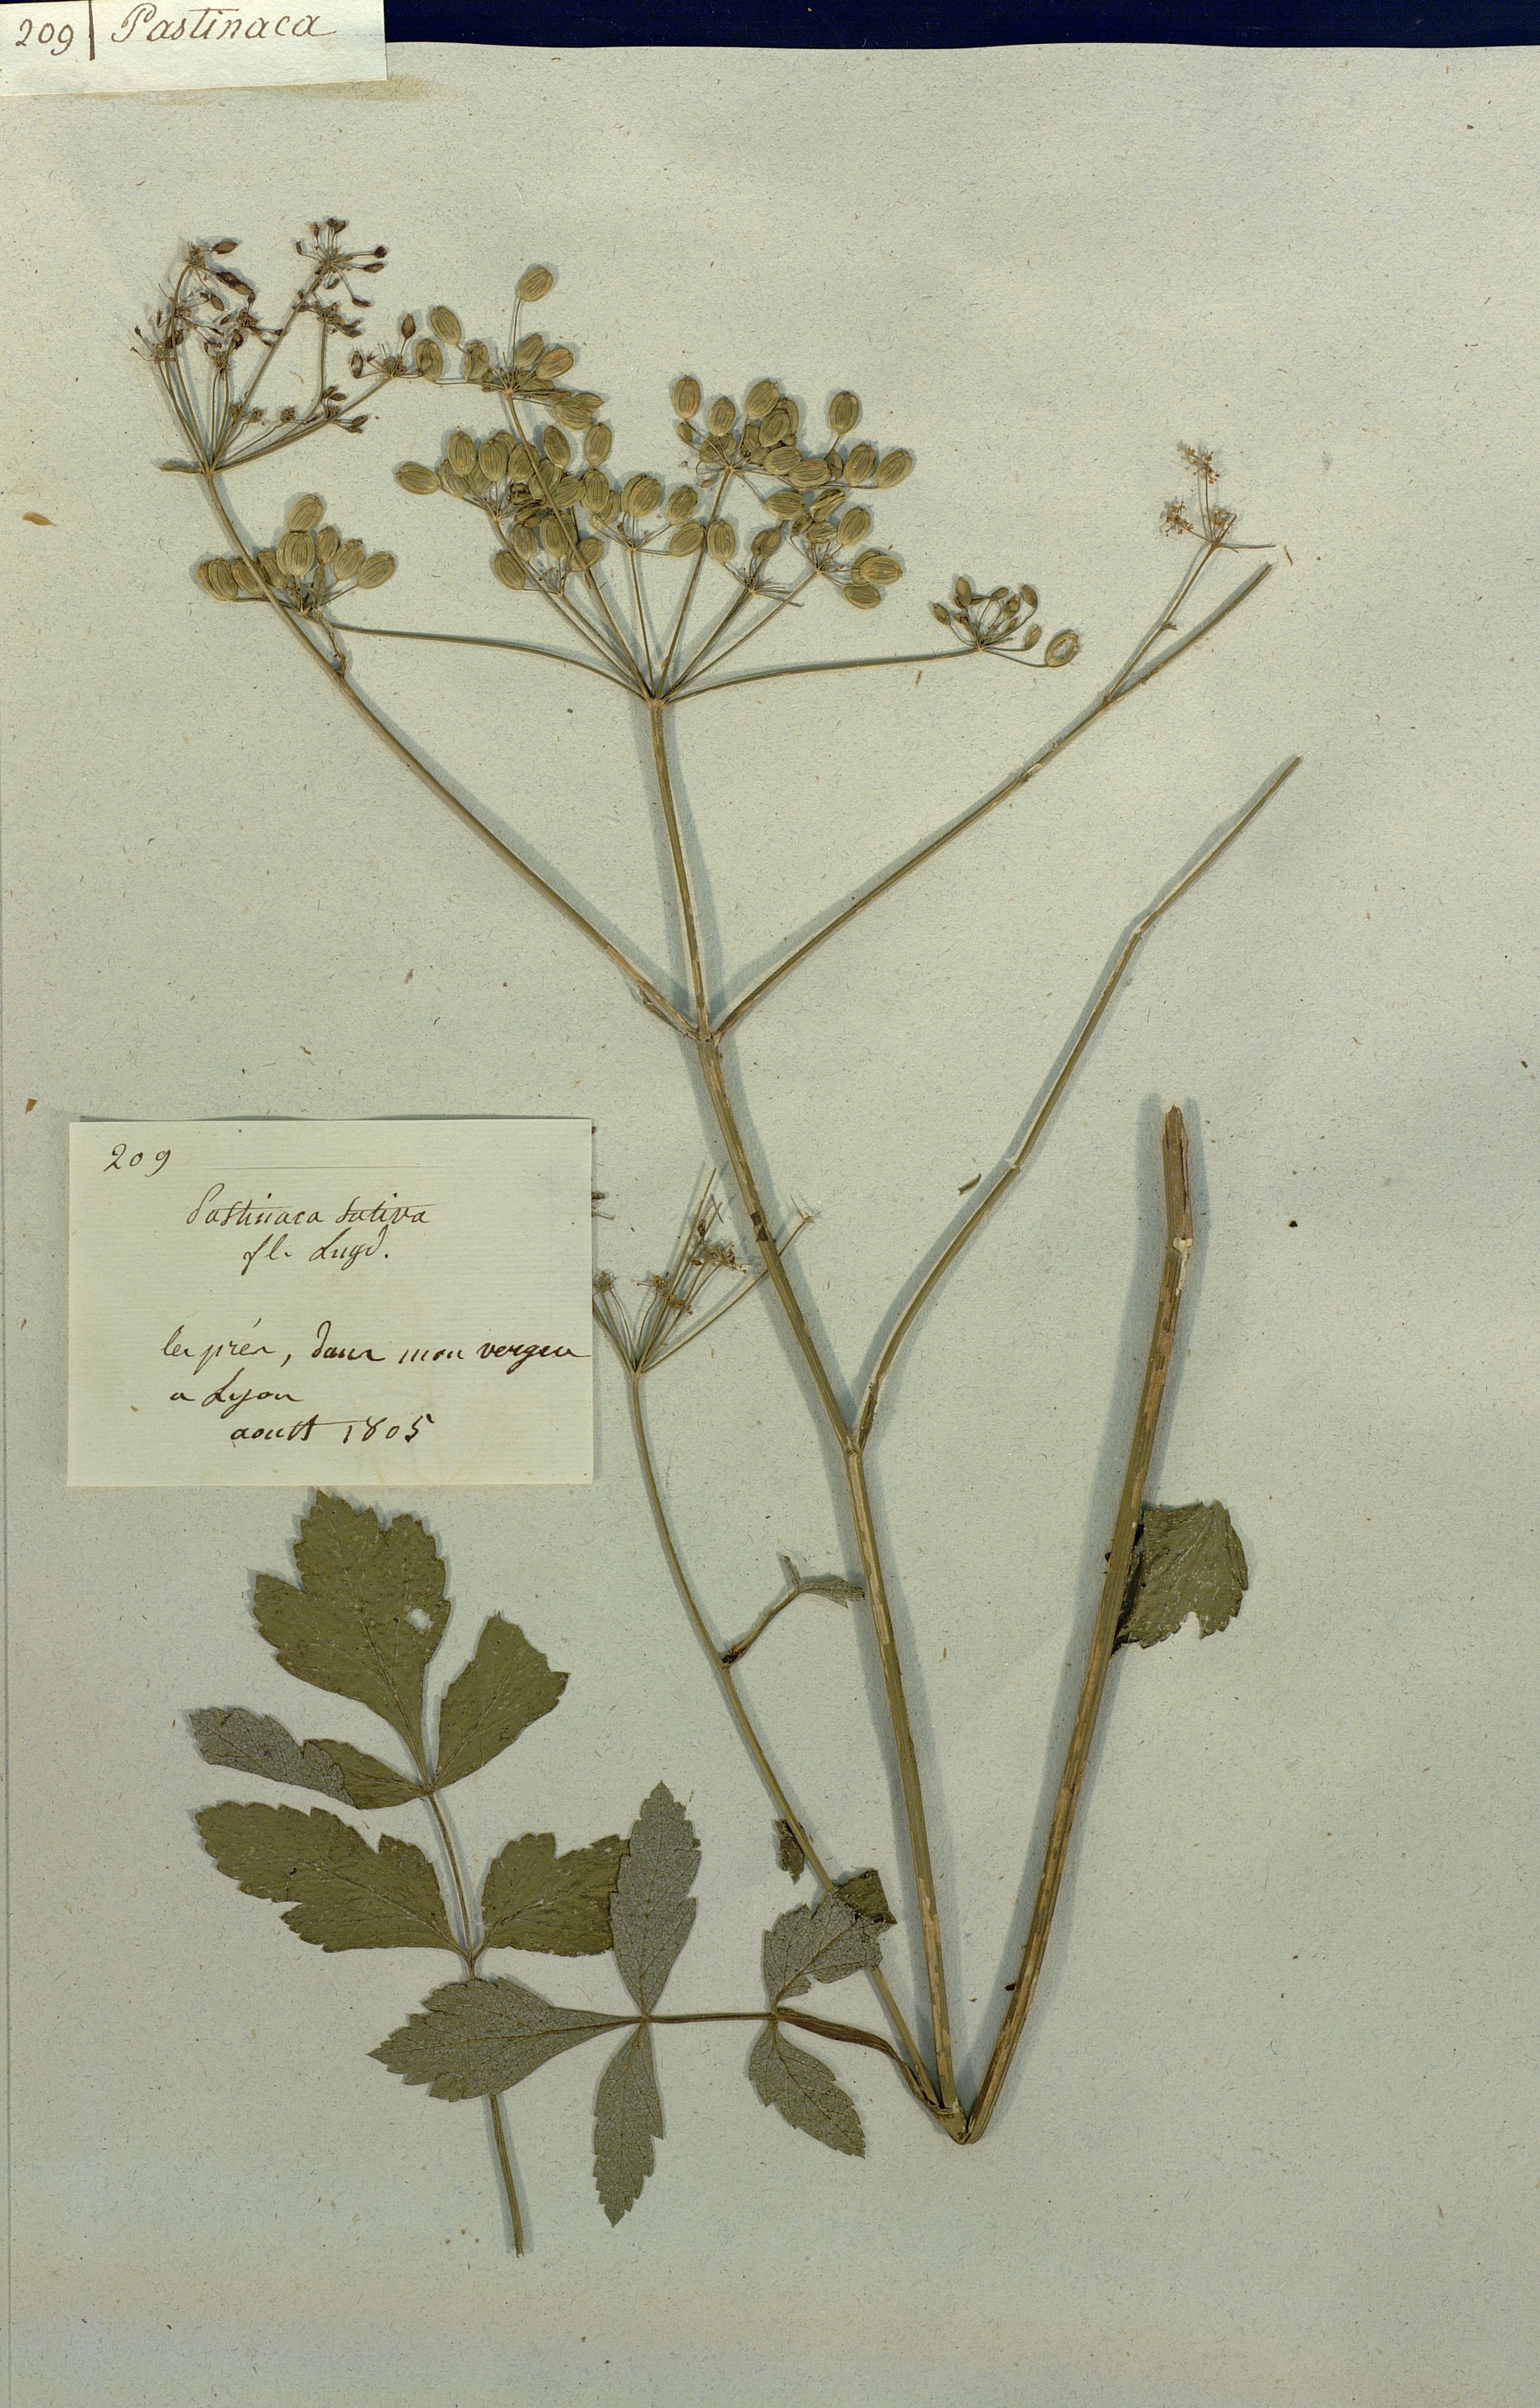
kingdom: Plantae
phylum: Tracheophyta
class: Magnoliopsida
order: Apiales
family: Apiaceae
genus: Pastinaca
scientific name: Pastinaca sativa
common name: Wild parsnip
